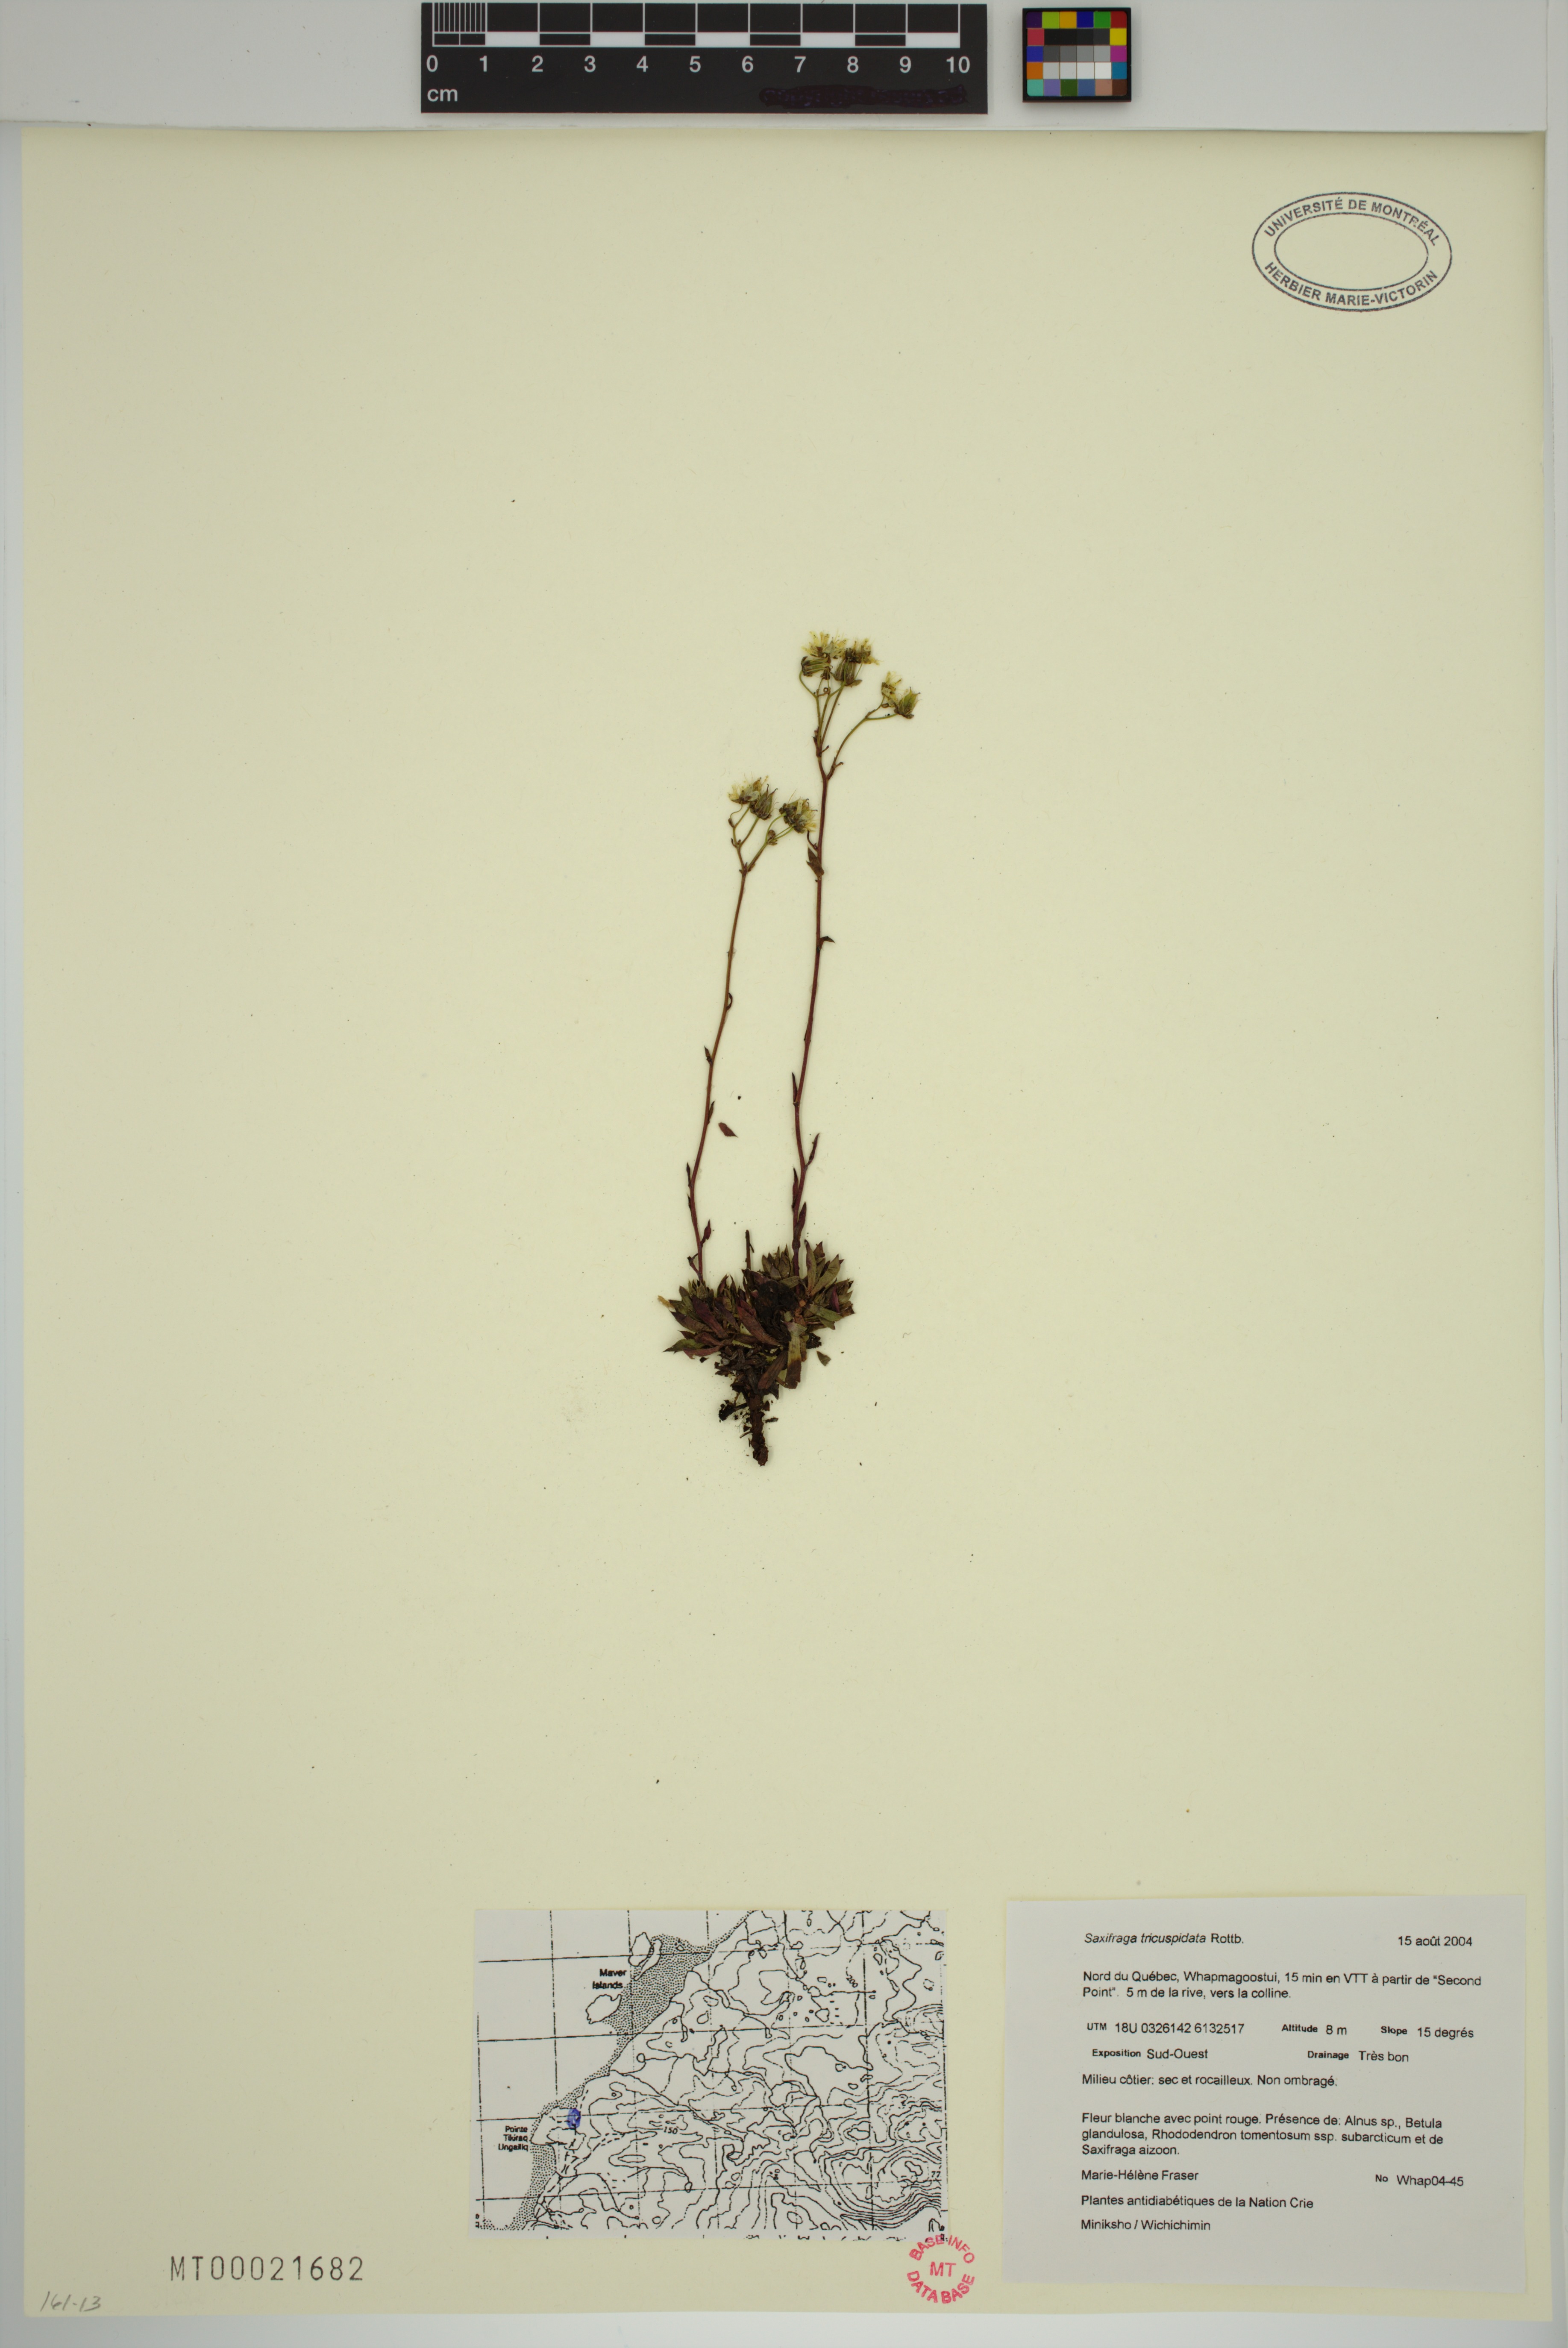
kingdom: Plantae
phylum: Tracheophyta
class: Magnoliopsida
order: Saxifragales
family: Saxifragaceae
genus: Saxifraga
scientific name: Saxifraga tricuspidata
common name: Prickly saxifrage
